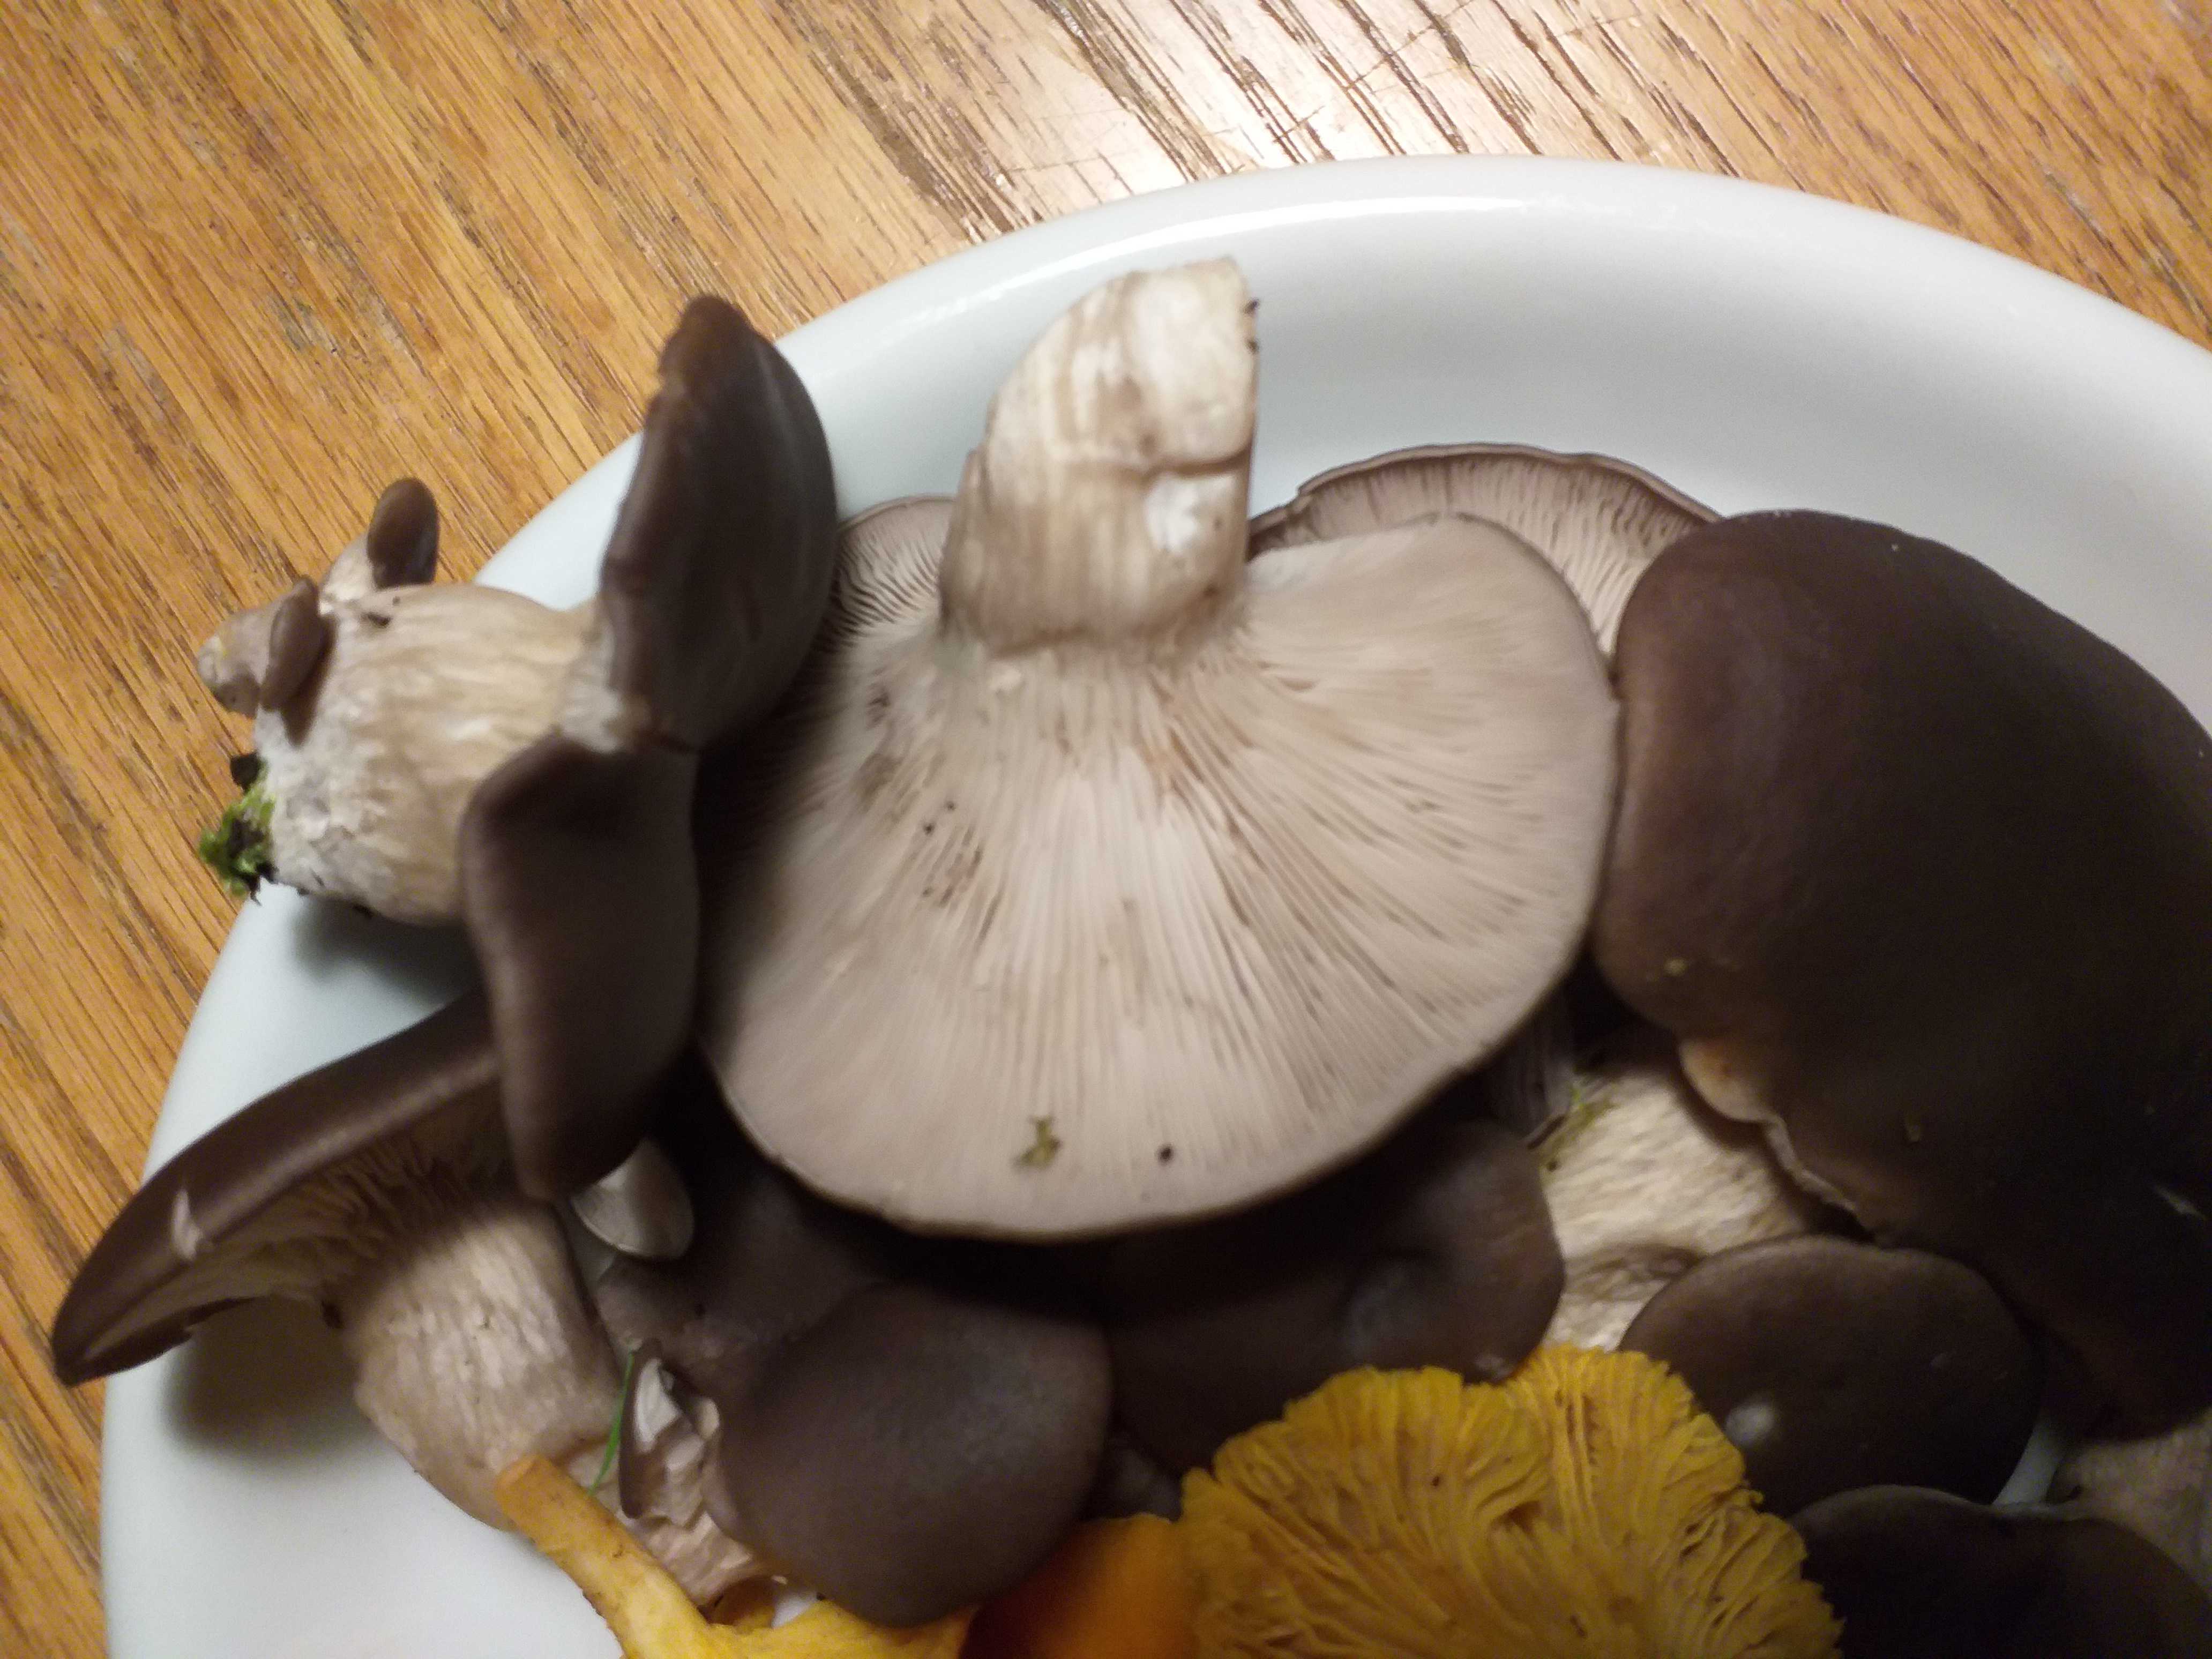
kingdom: Fungi
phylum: Basidiomycota
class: Agaricomycetes
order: Agaricales
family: Pleurotaceae
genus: Pleurotus
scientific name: Pleurotus ostreatus
